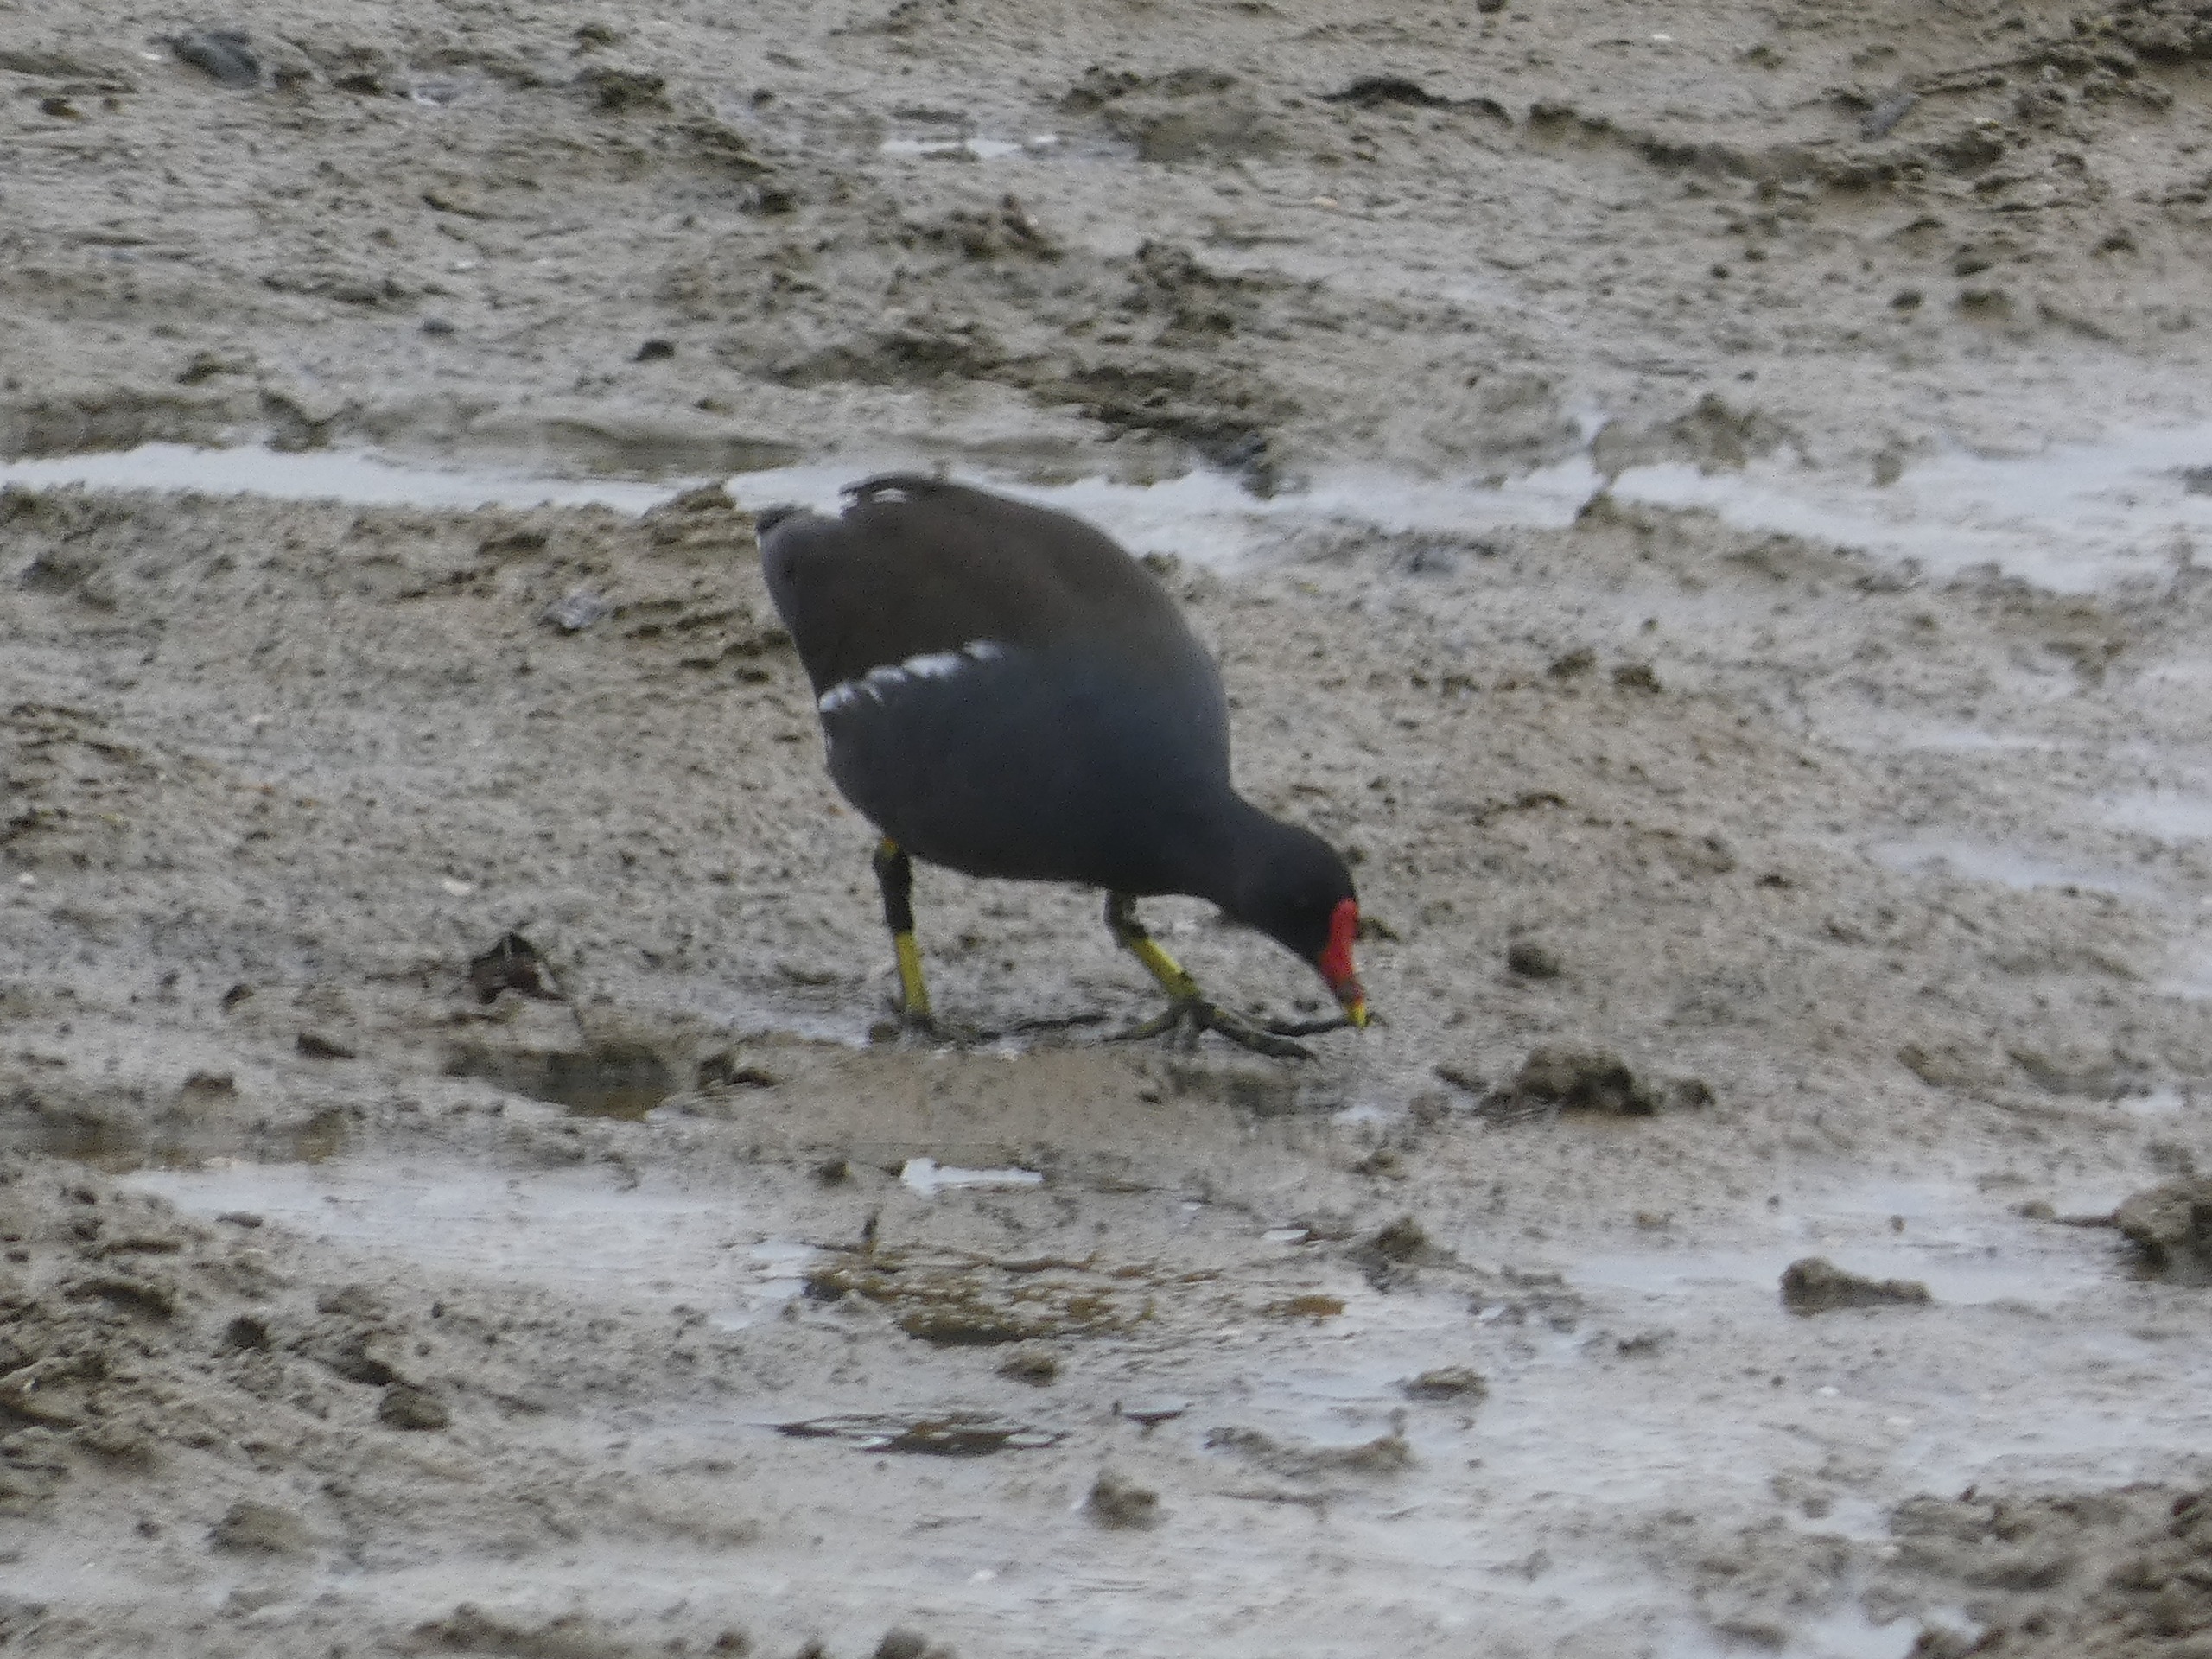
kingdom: Animalia
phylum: Chordata
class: Aves
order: Gruiformes
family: Rallidae
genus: Gallinula
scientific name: Gallinula chloropus
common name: Grønbenet rørhøne
